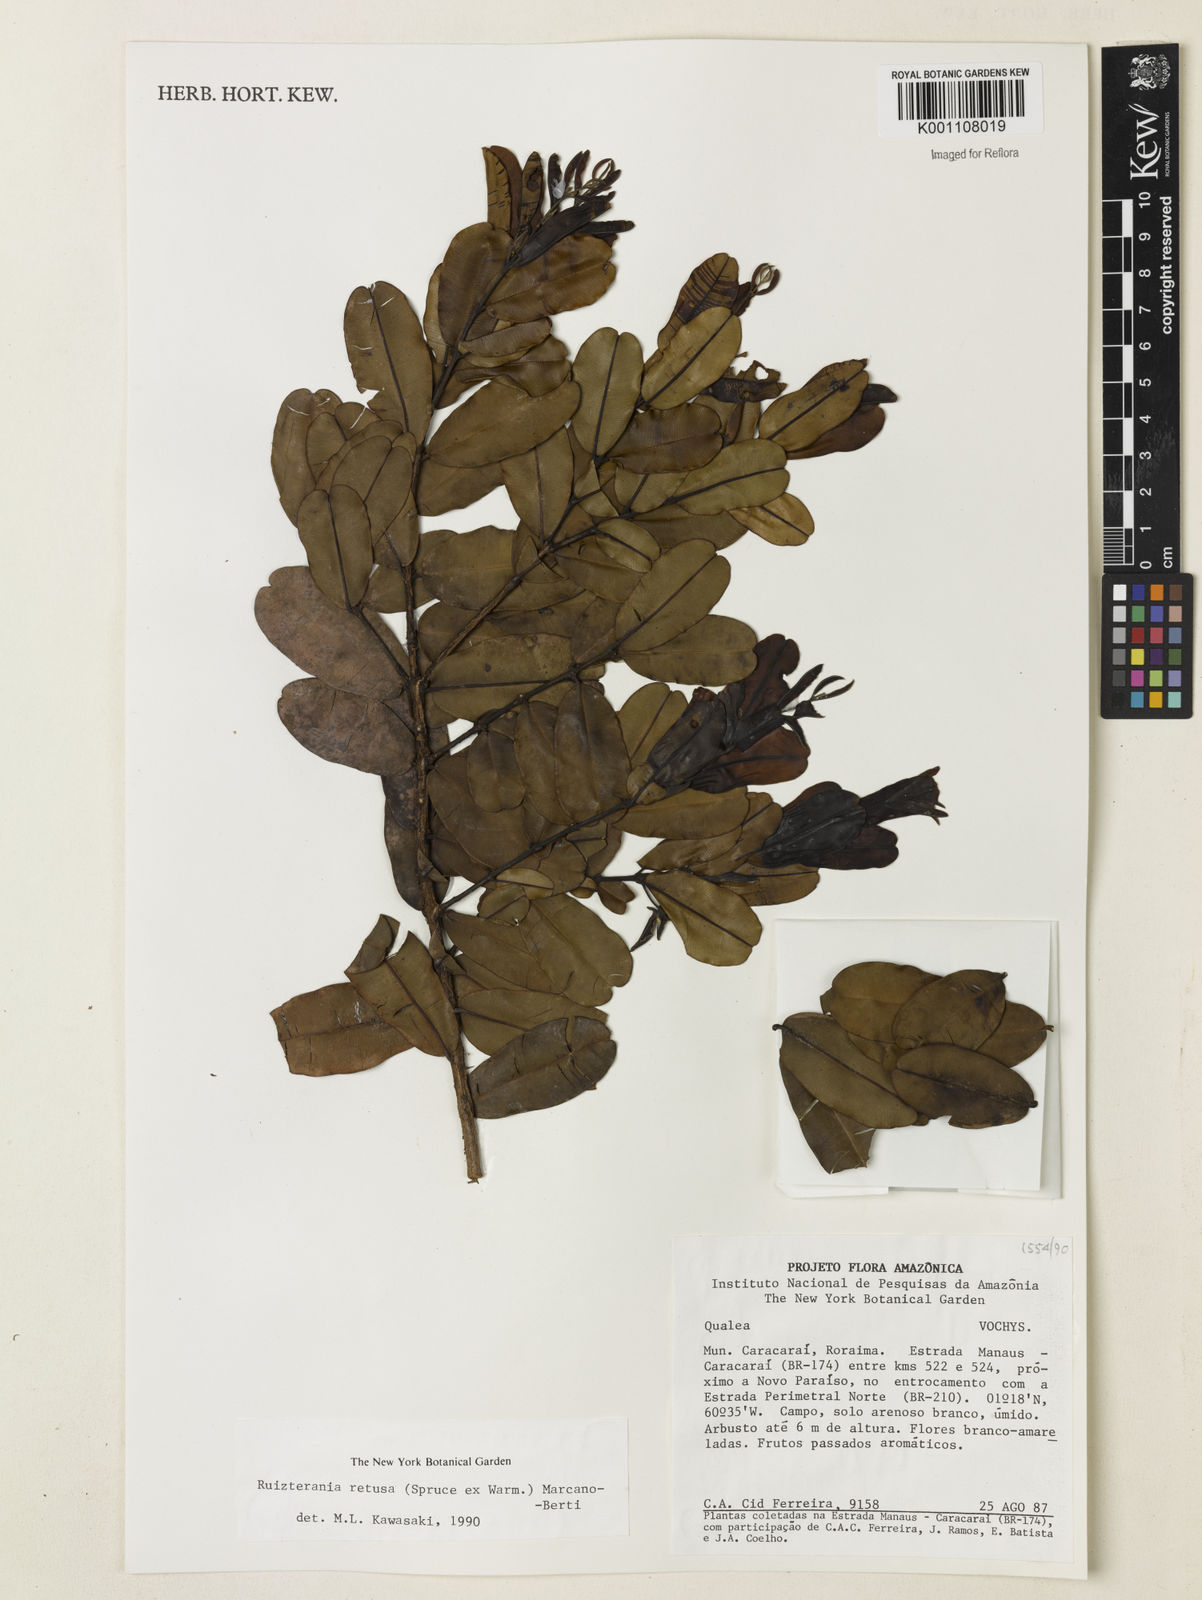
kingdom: Plantae
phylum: Tracheophyta
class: Magnoliopsida
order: Myrtales
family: Vochysiaceae
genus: Ruizterania
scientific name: Ruizterania retusa
